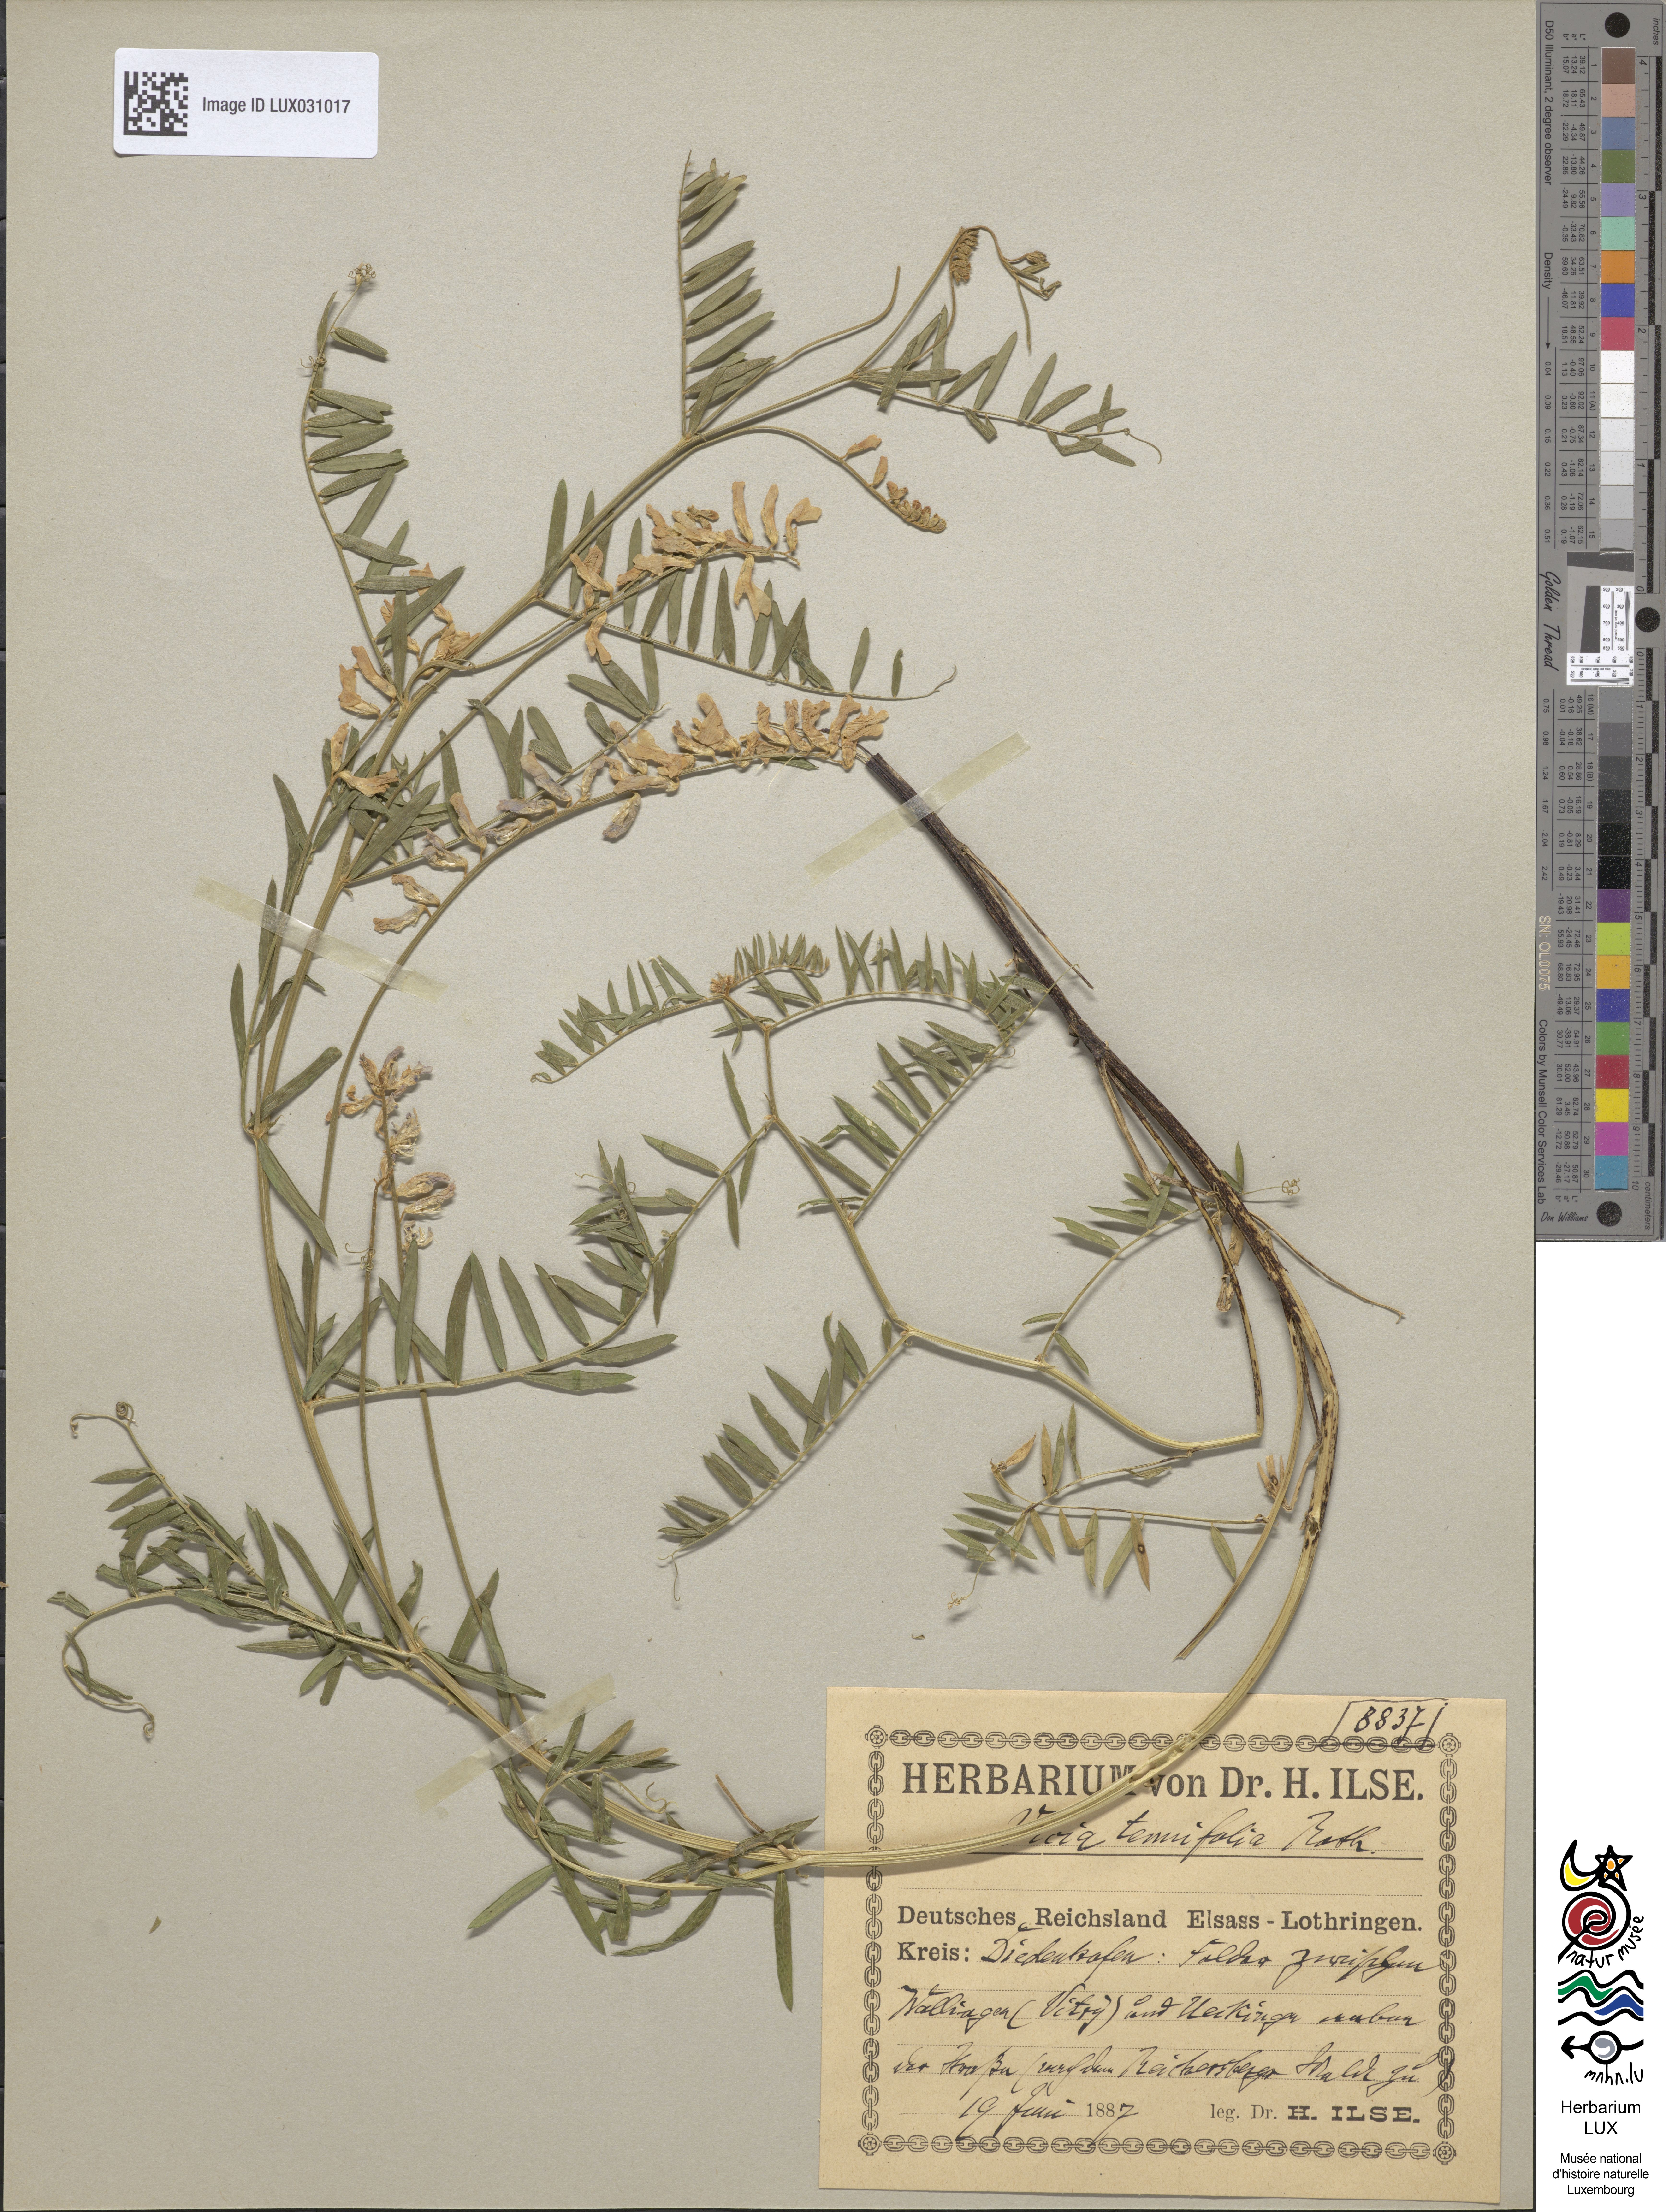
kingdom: Plantae
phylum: Tracheophyta
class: Magnoliopsida
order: Fabales
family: Fabaceae
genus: Vicia
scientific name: Vicia tenuifolia
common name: Fine-leaved vetch
